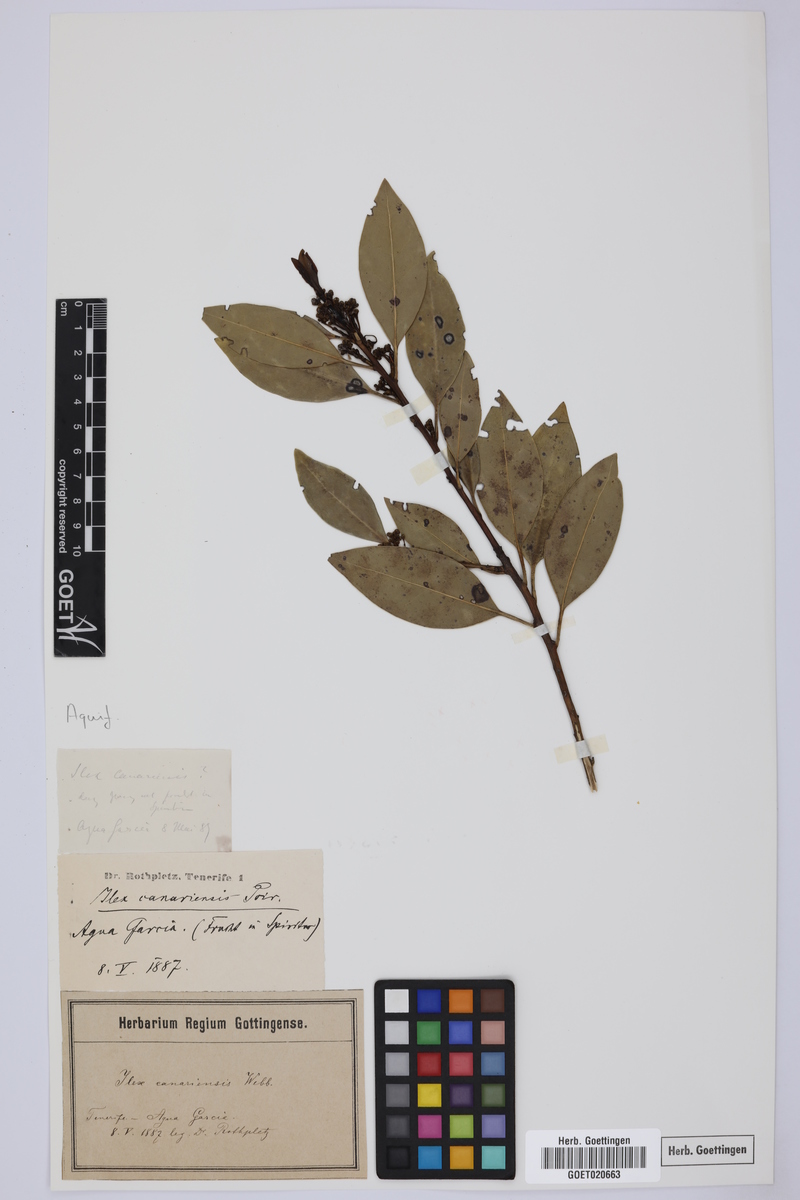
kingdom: Plantae
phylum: Tracheophyta
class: Magnoliopsida
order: Aquifoliales
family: Aquifoliaceae
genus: Ilex
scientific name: Ilex canariensis
